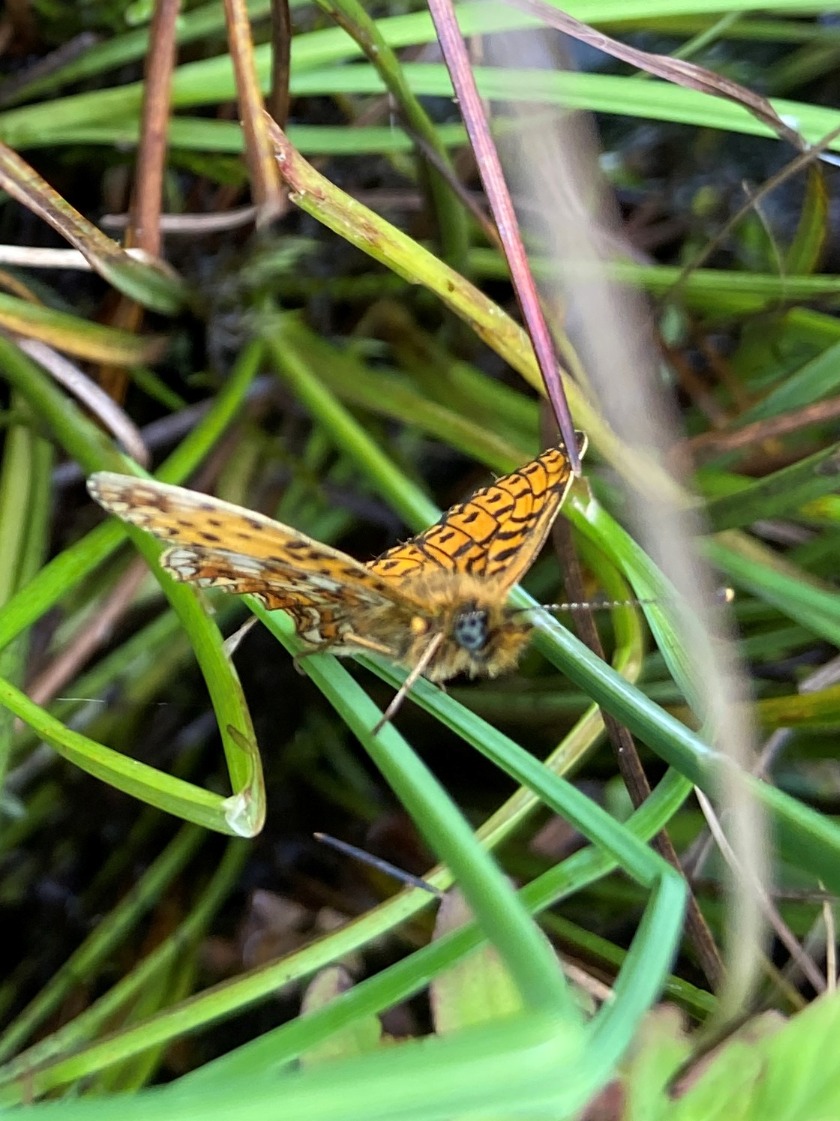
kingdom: Animalia
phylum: Arthropoda
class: Insecta
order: Lepidoptera
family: Nymphalidae
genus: Boloria
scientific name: Boloria selene
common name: Brunlig perlemorsommerfugl
